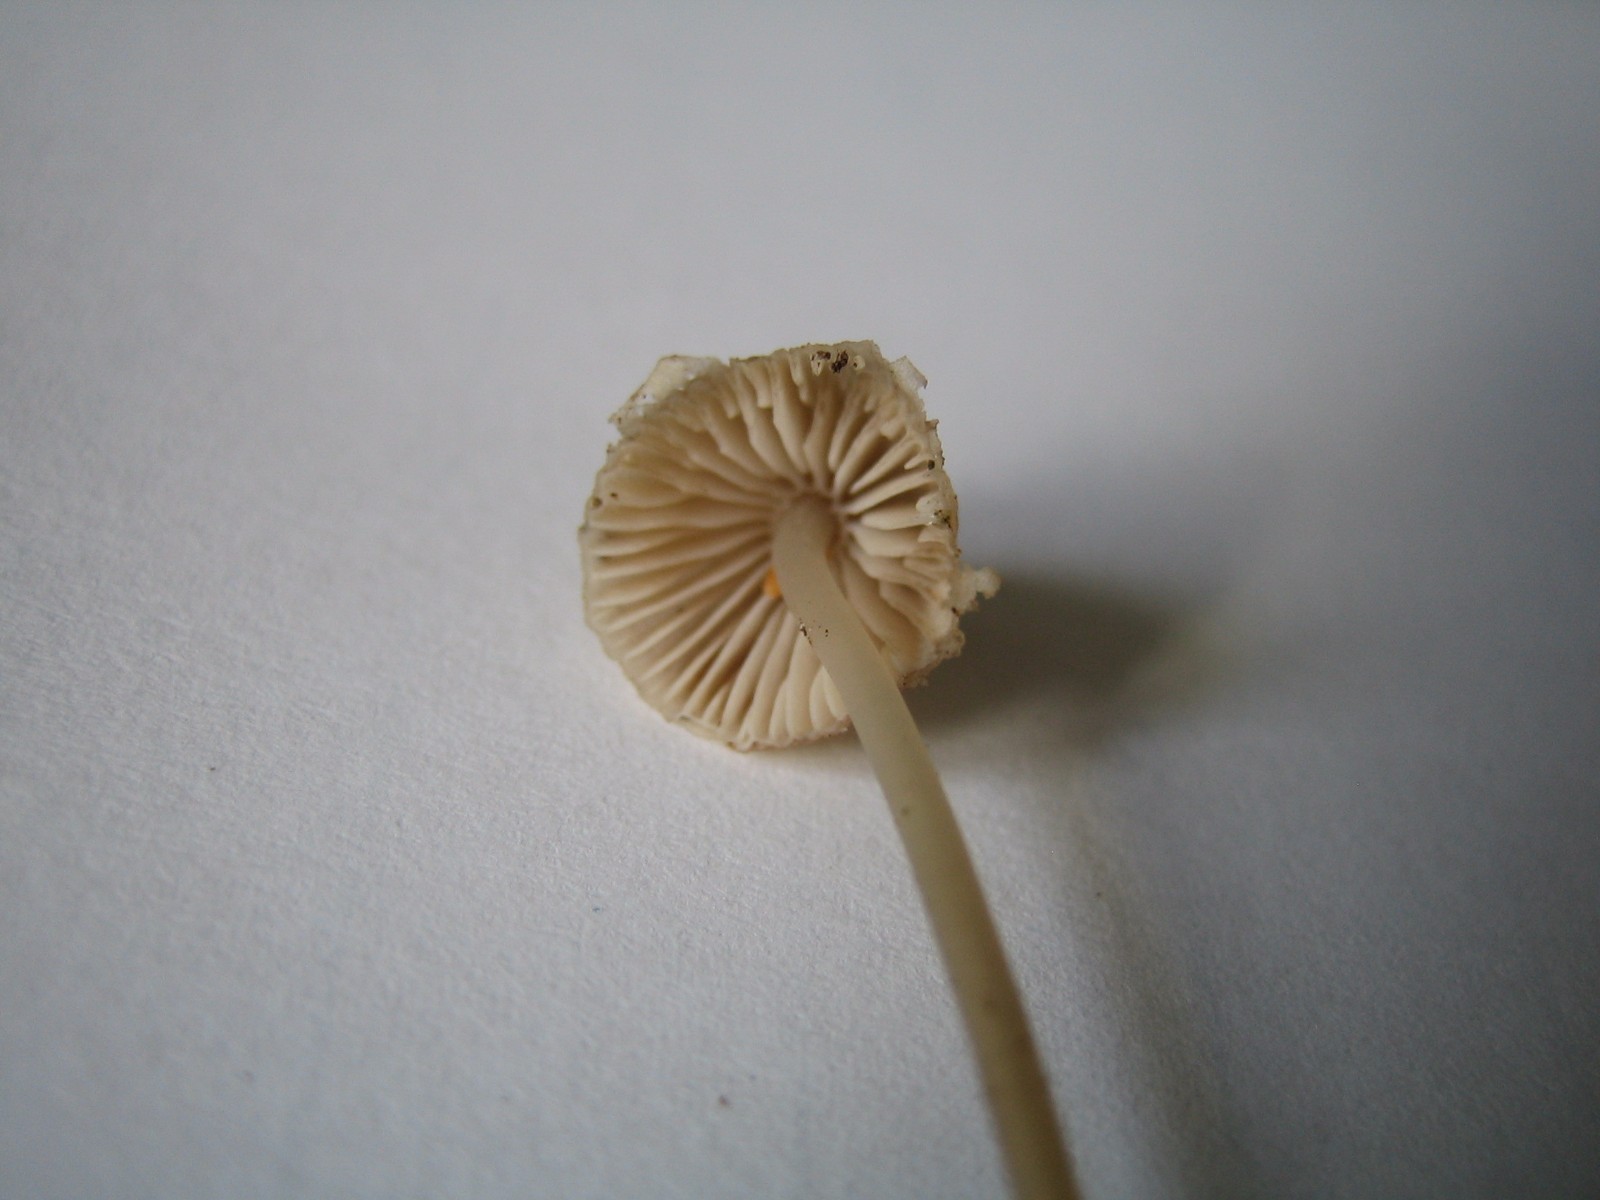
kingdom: Fungi
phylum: Basidiomycota
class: Agaricomycetes
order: Agaricales
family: Mycenaceae
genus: Mycena
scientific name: Mycena metata
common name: rødlig huesvamp
